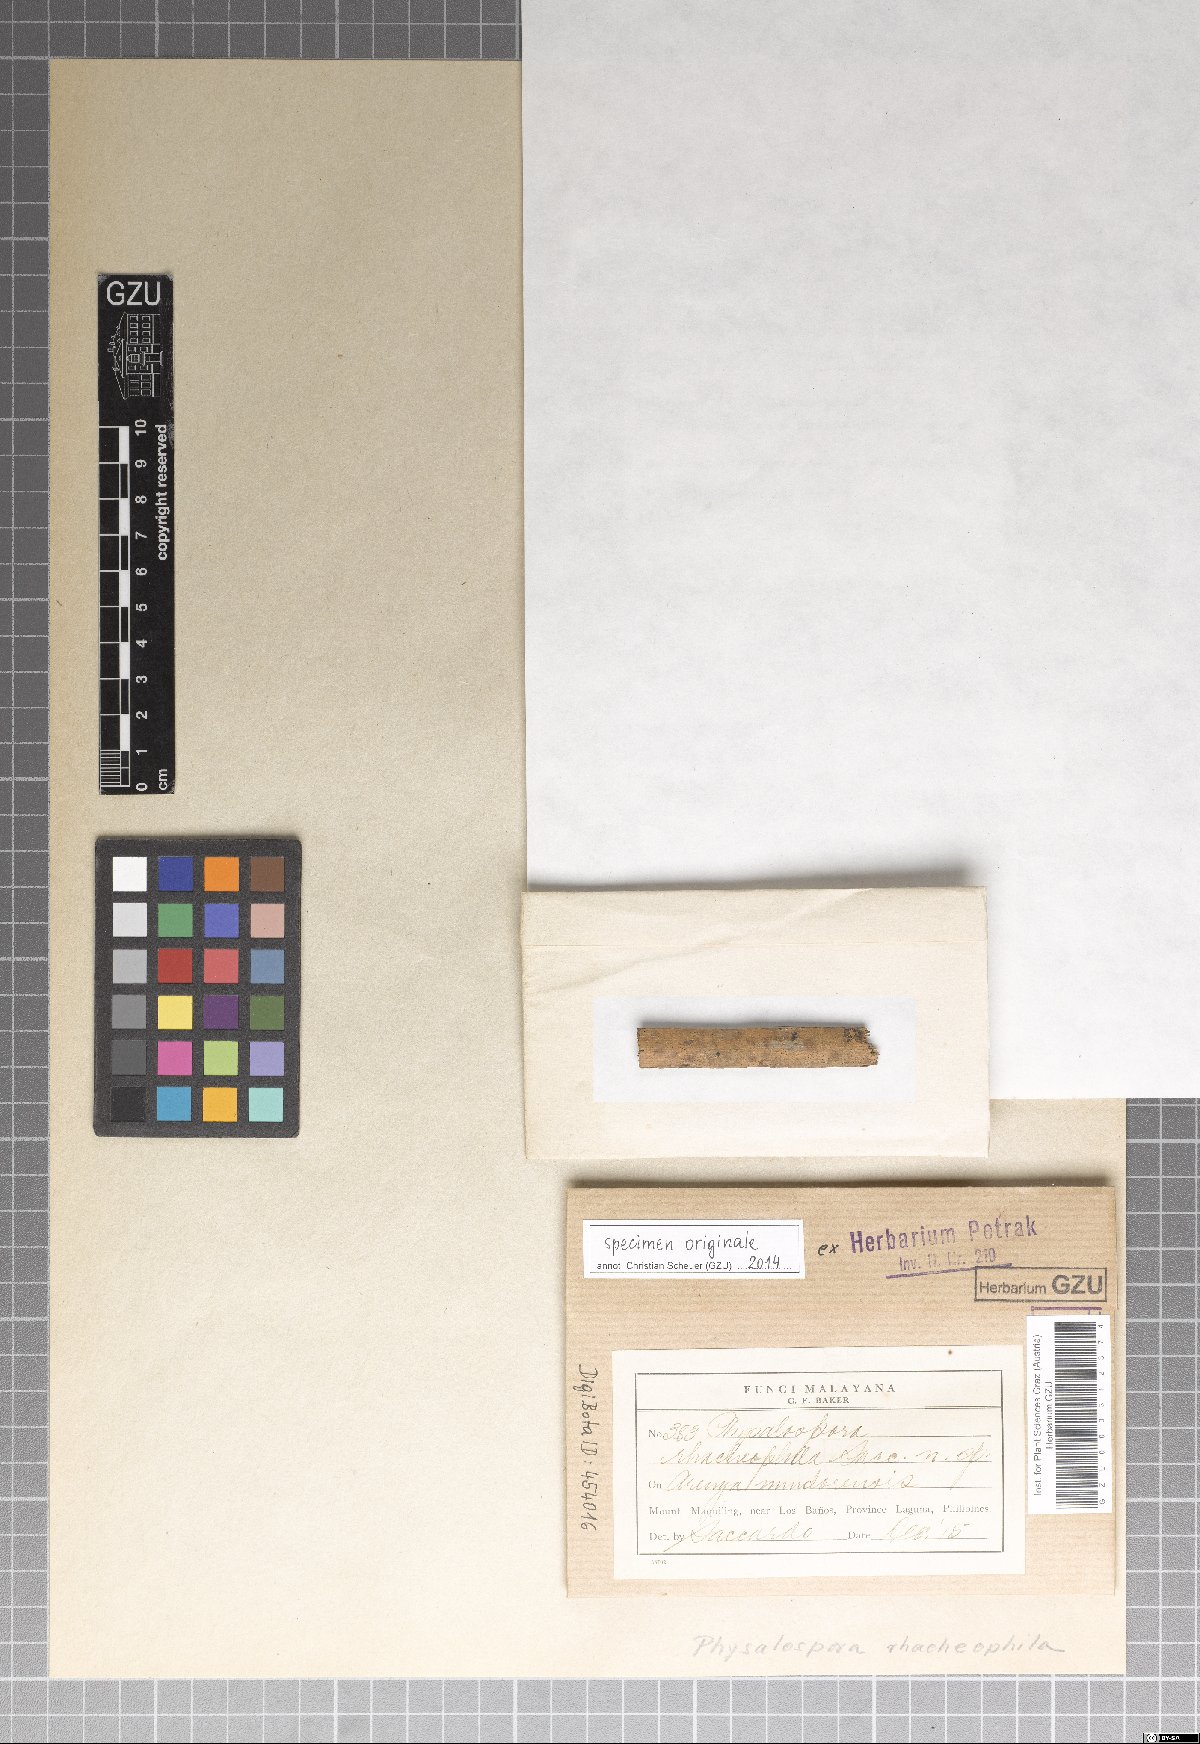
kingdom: Fungi
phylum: Ascomycota
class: Dothideomycetes
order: Botryosphaeriales
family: Botryosphaeriaceae
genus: Melanops
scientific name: Melanops rhacheophila
